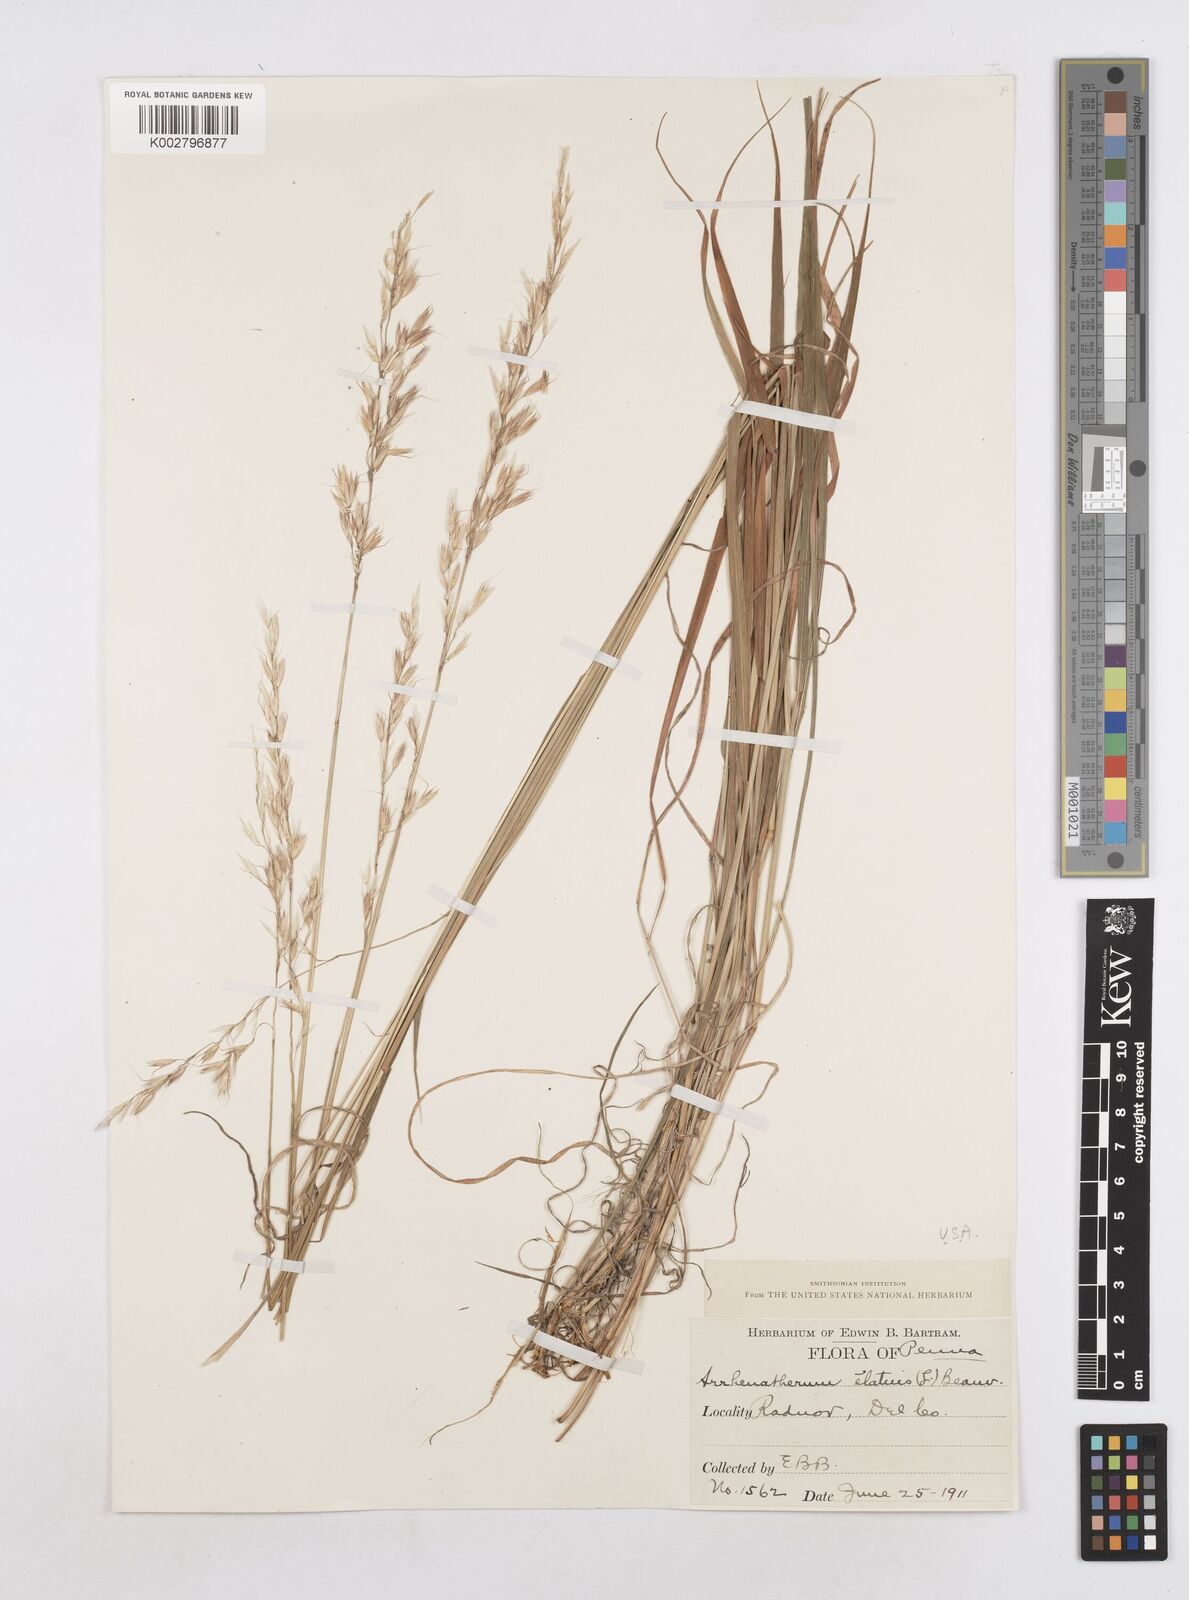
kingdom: Plantae
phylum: Tracheophyta
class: Liliopsida
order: Poales
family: Poaceae
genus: Arrhenatherum
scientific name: Arrhenatherum elatius
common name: Tall oatgrass
